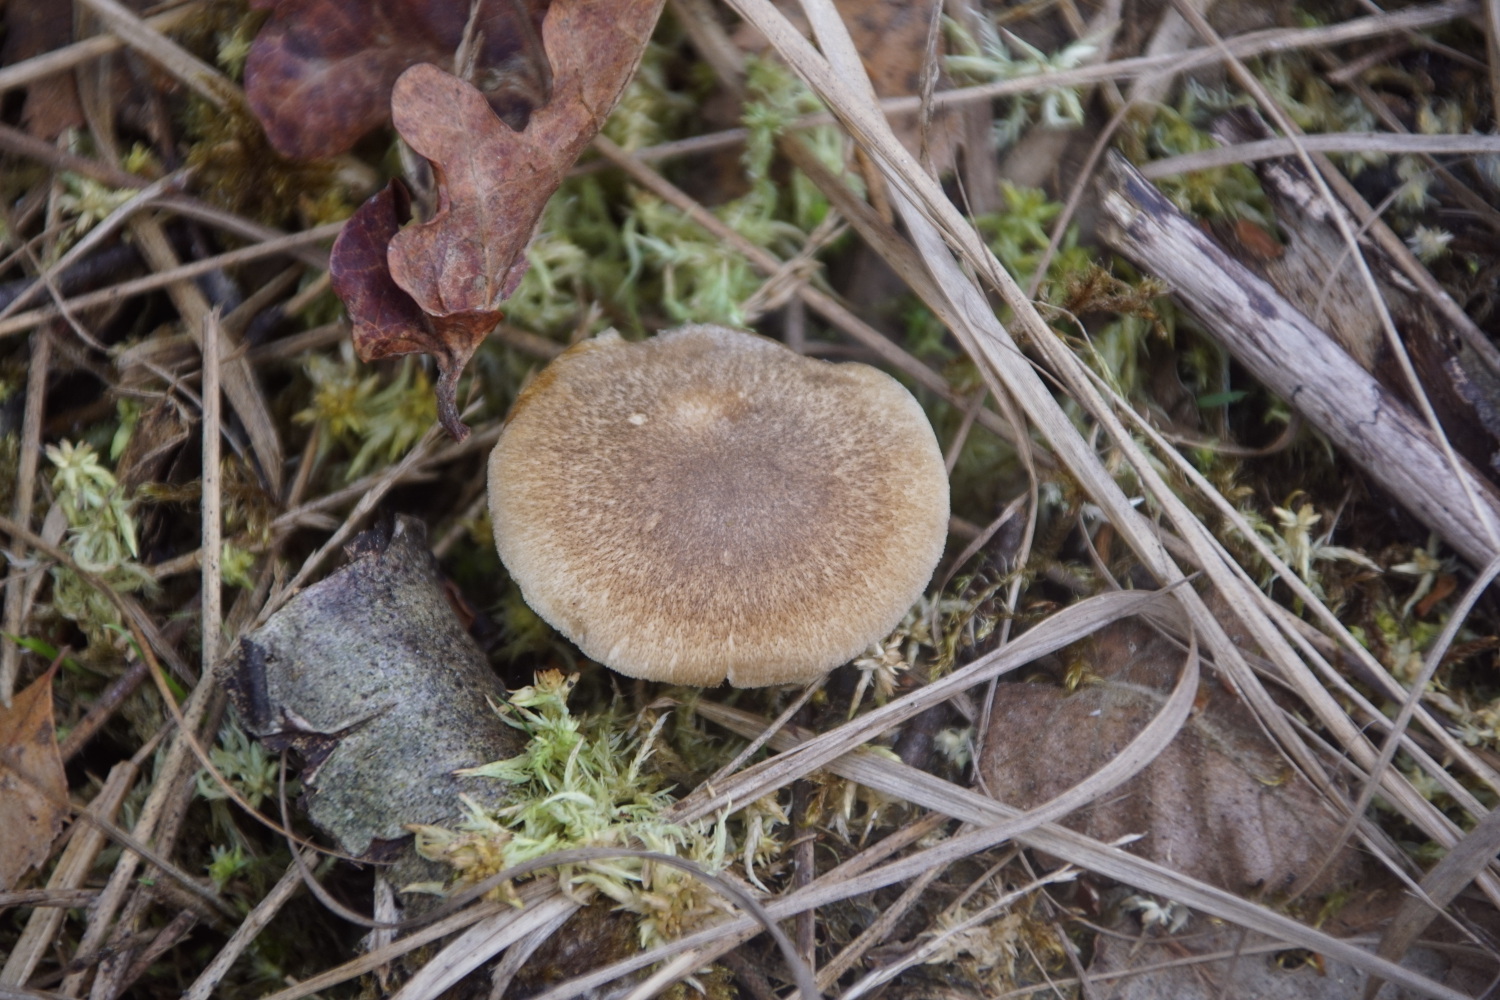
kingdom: Fungi
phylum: Basidiomycota
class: Agaricomycetes
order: Polyporales
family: Polyporaceae
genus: Lentinus
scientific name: Lentinus substrictus
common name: forårs-stilkporesvamp
